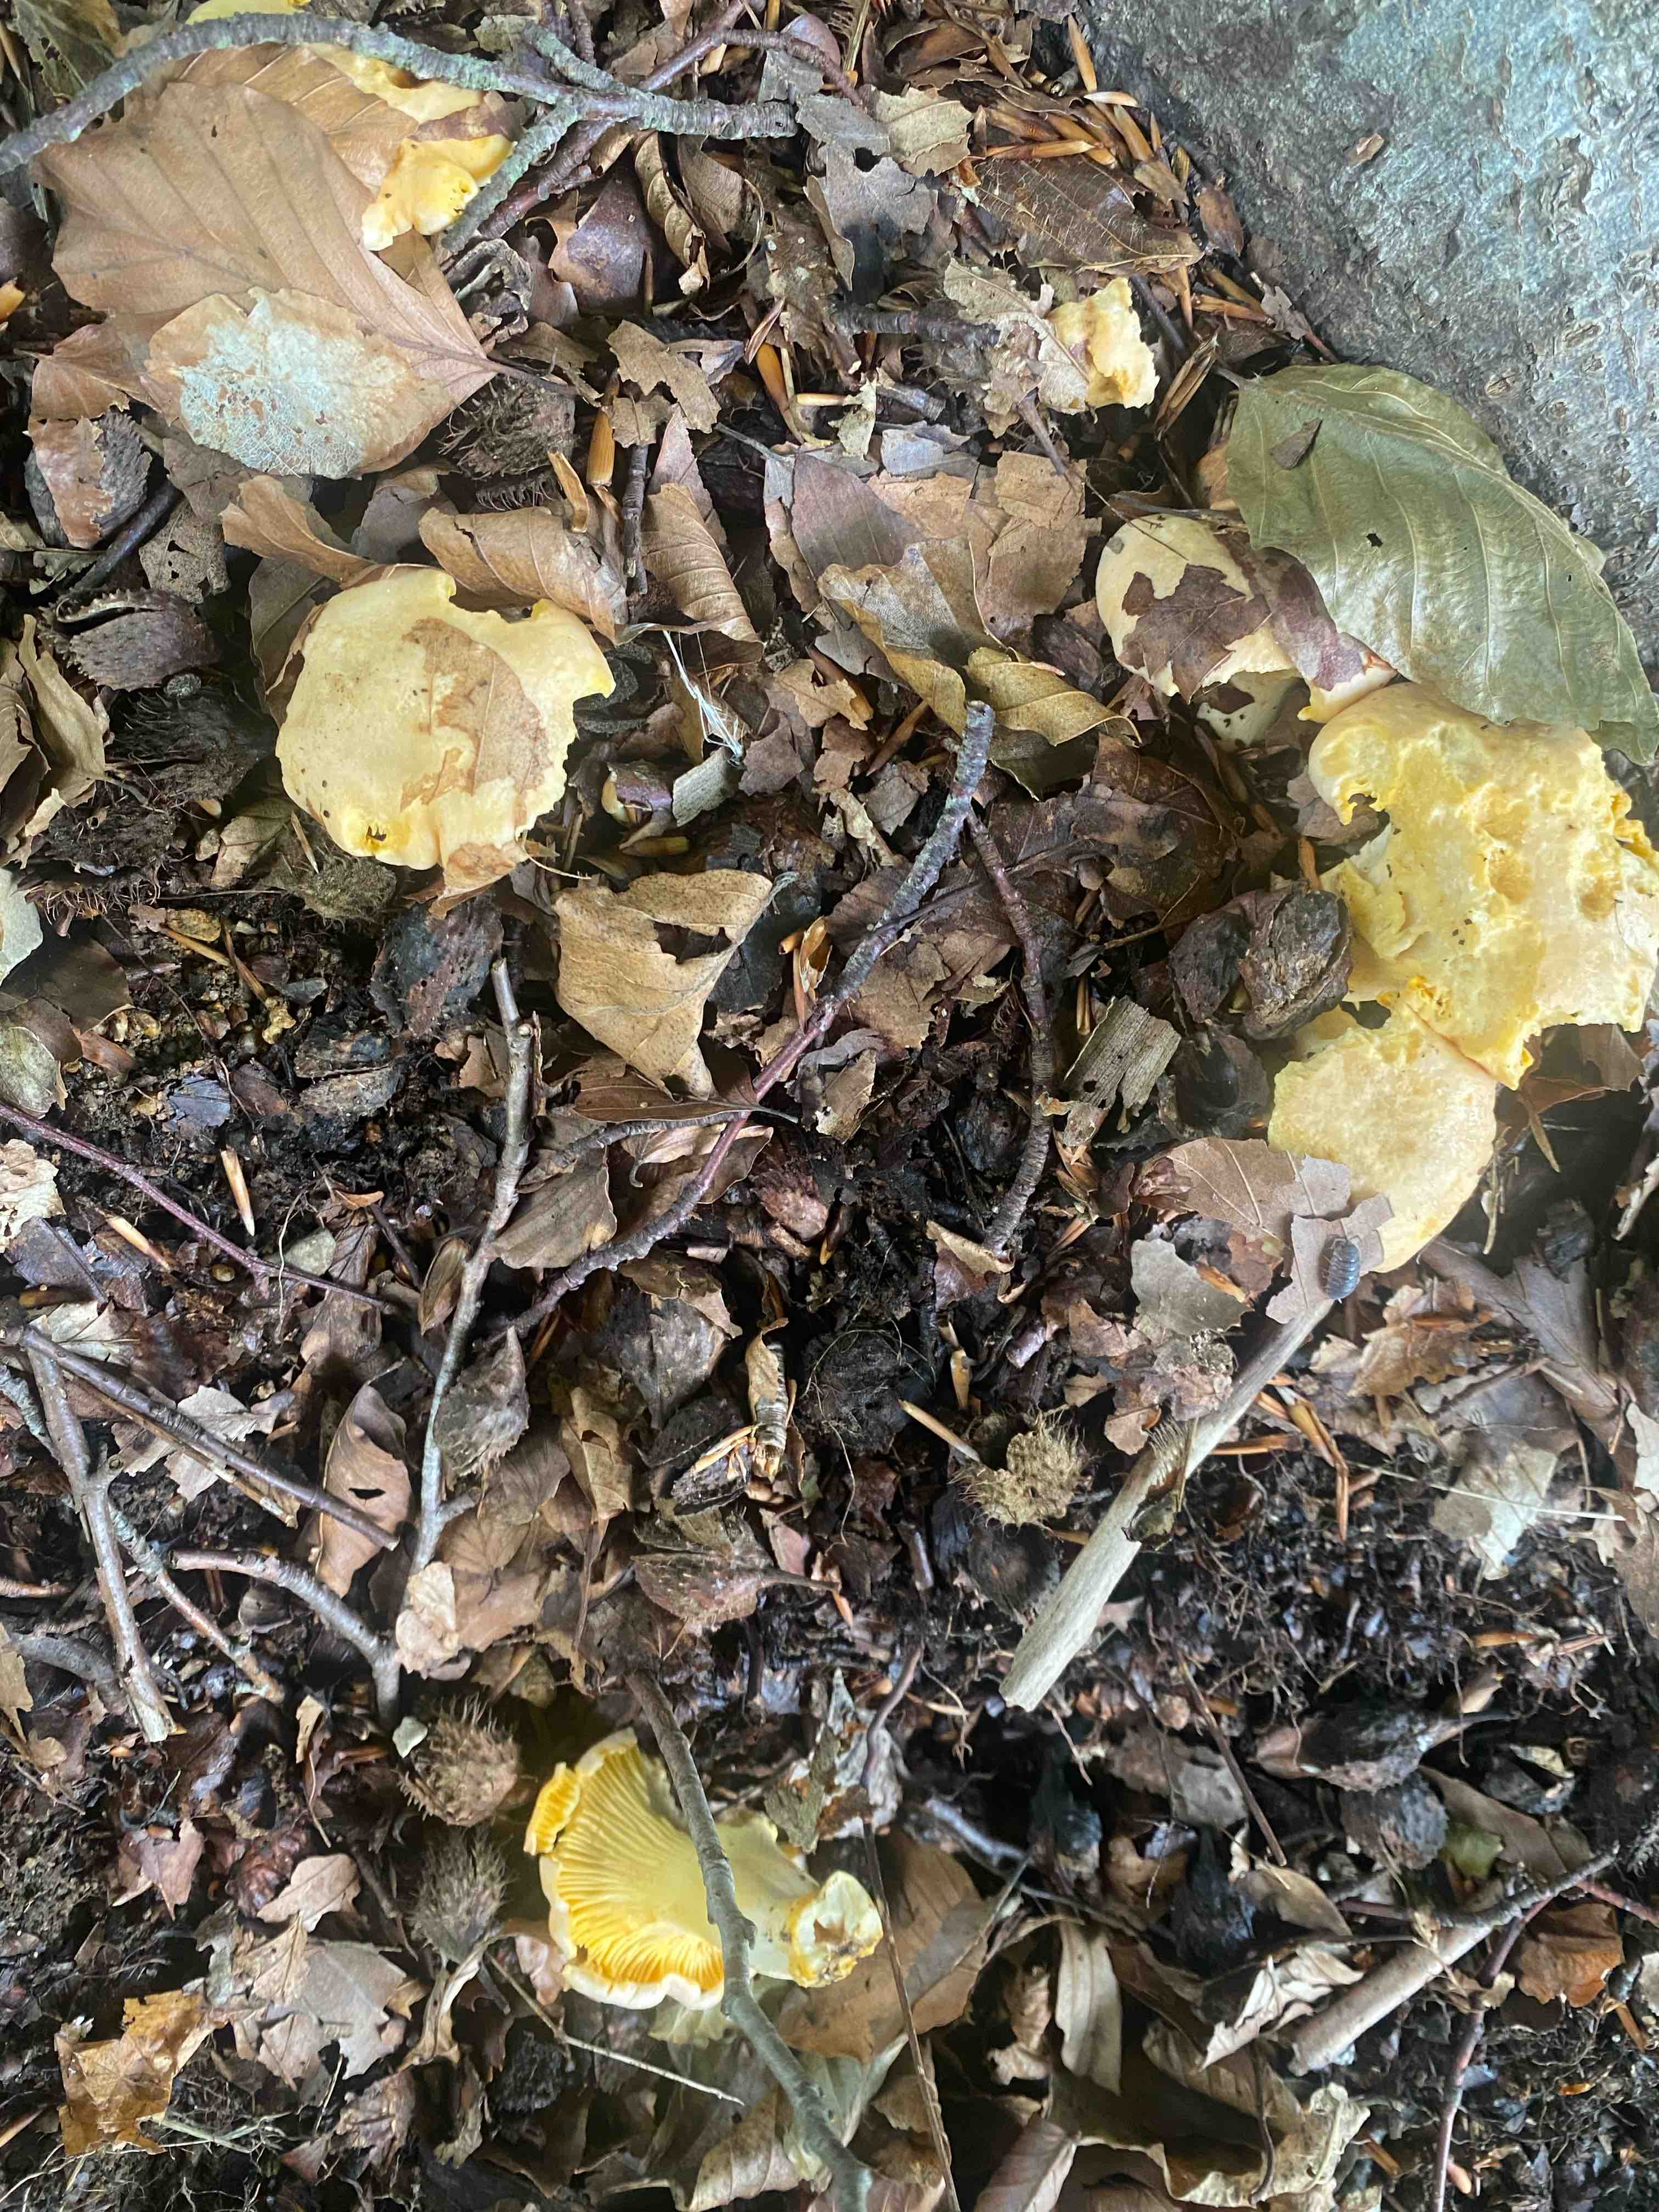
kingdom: Fungi
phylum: Basidiomycota
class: Agaricomycetes
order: Cantharellales
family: Hydnaceae
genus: Cantharellus
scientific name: Cantharellus pallens
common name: bleg kantarel
